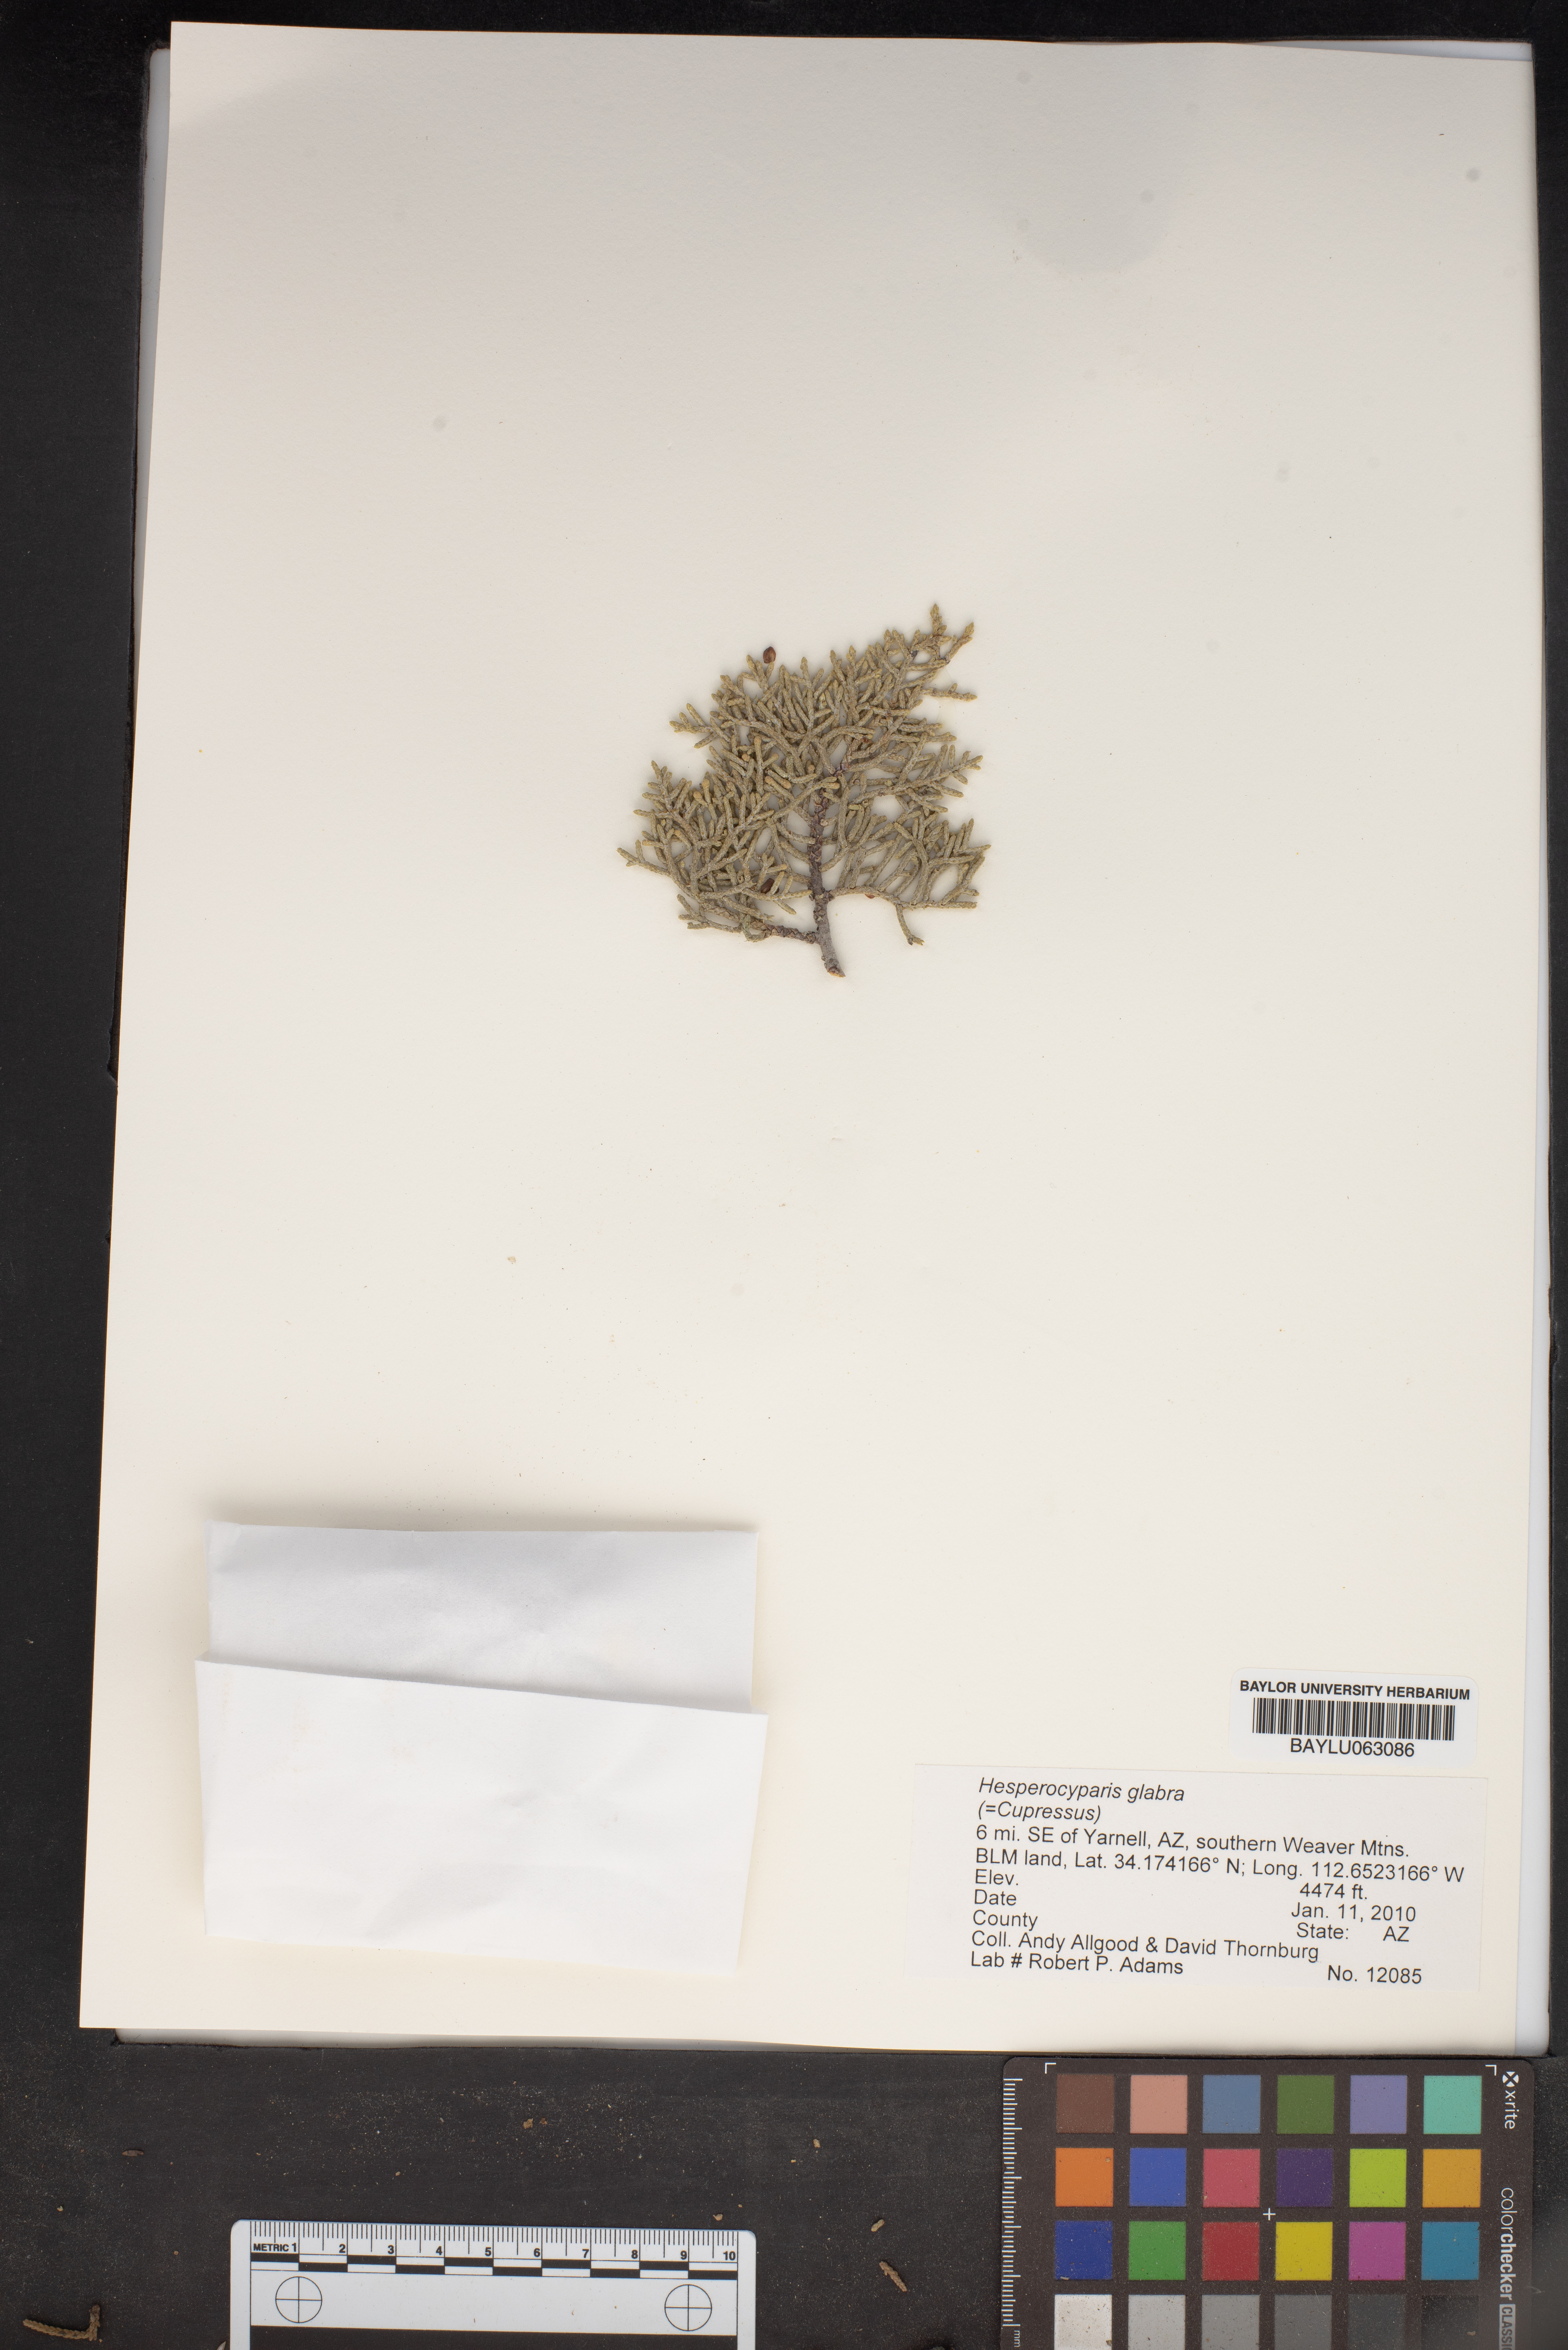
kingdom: Plantae
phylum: Tracheophyta
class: Pinopsida
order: Pinales
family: Cupressaceae
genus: Cupressus
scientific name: Cupressus arizonica
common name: Arizona cypress
